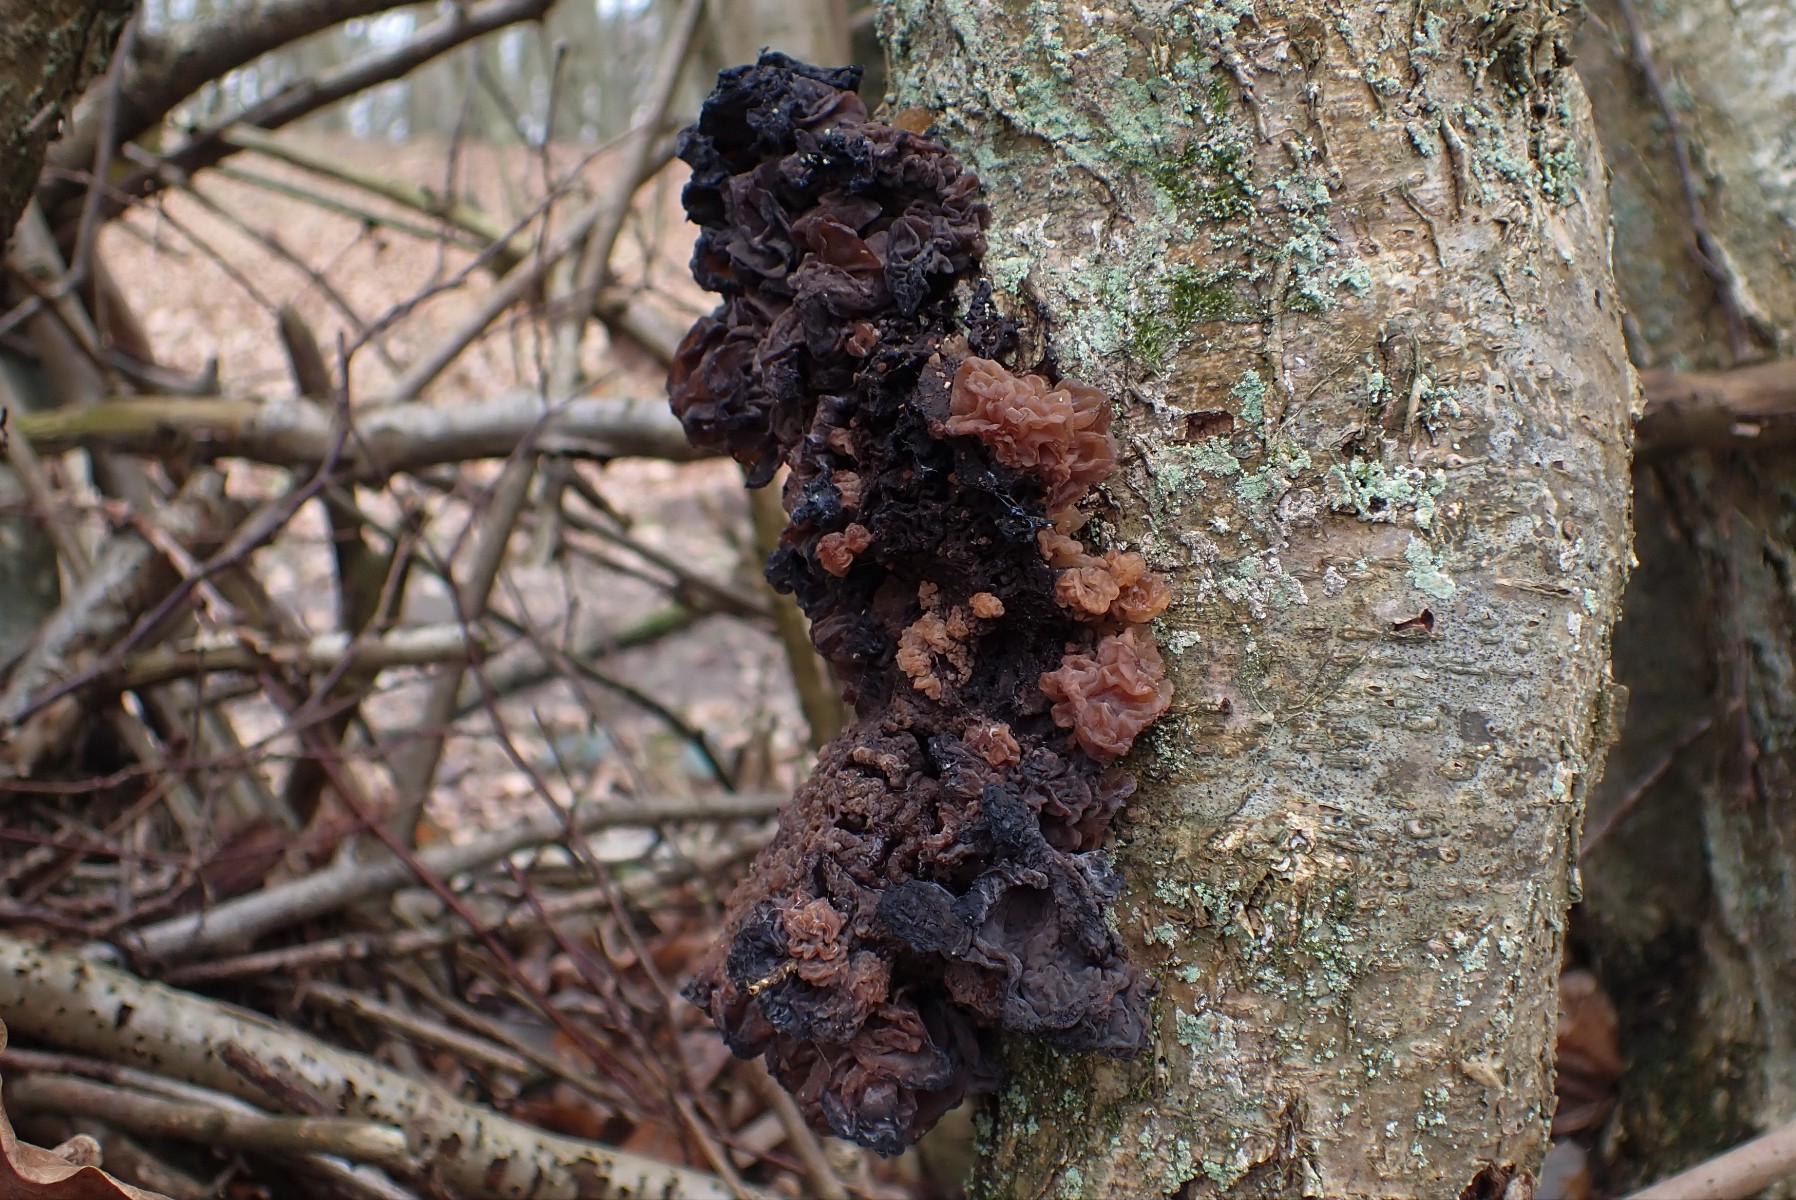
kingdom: Fungi
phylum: Basidiomycota
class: Tremellomycetes
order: Tremellales
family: Tremellaceae
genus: Phaeotremella
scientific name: Phaeotremella frondosa
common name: kæmpe-bævresvamp
